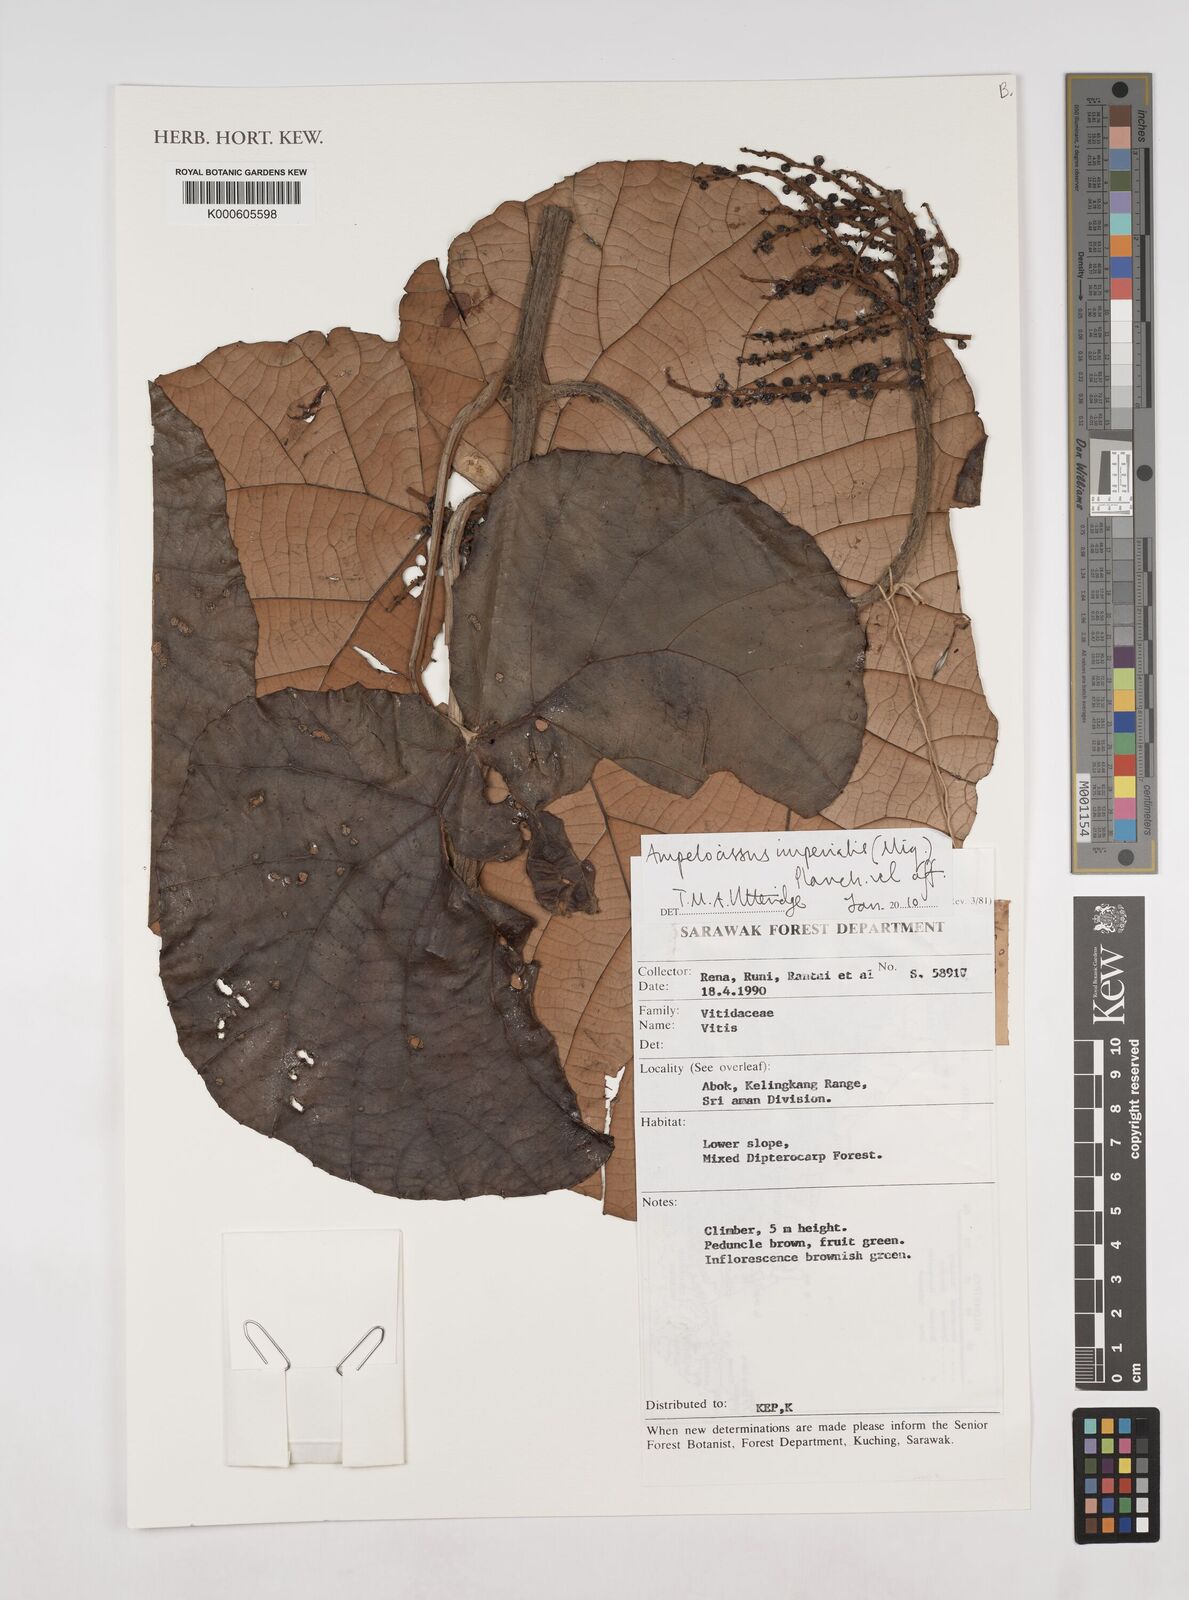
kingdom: Plantae
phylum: Tracheophyta
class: Magnoliopsida
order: Vitales
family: Vitaceae
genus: Ampelocissus
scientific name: Ampelocissus imperialis
